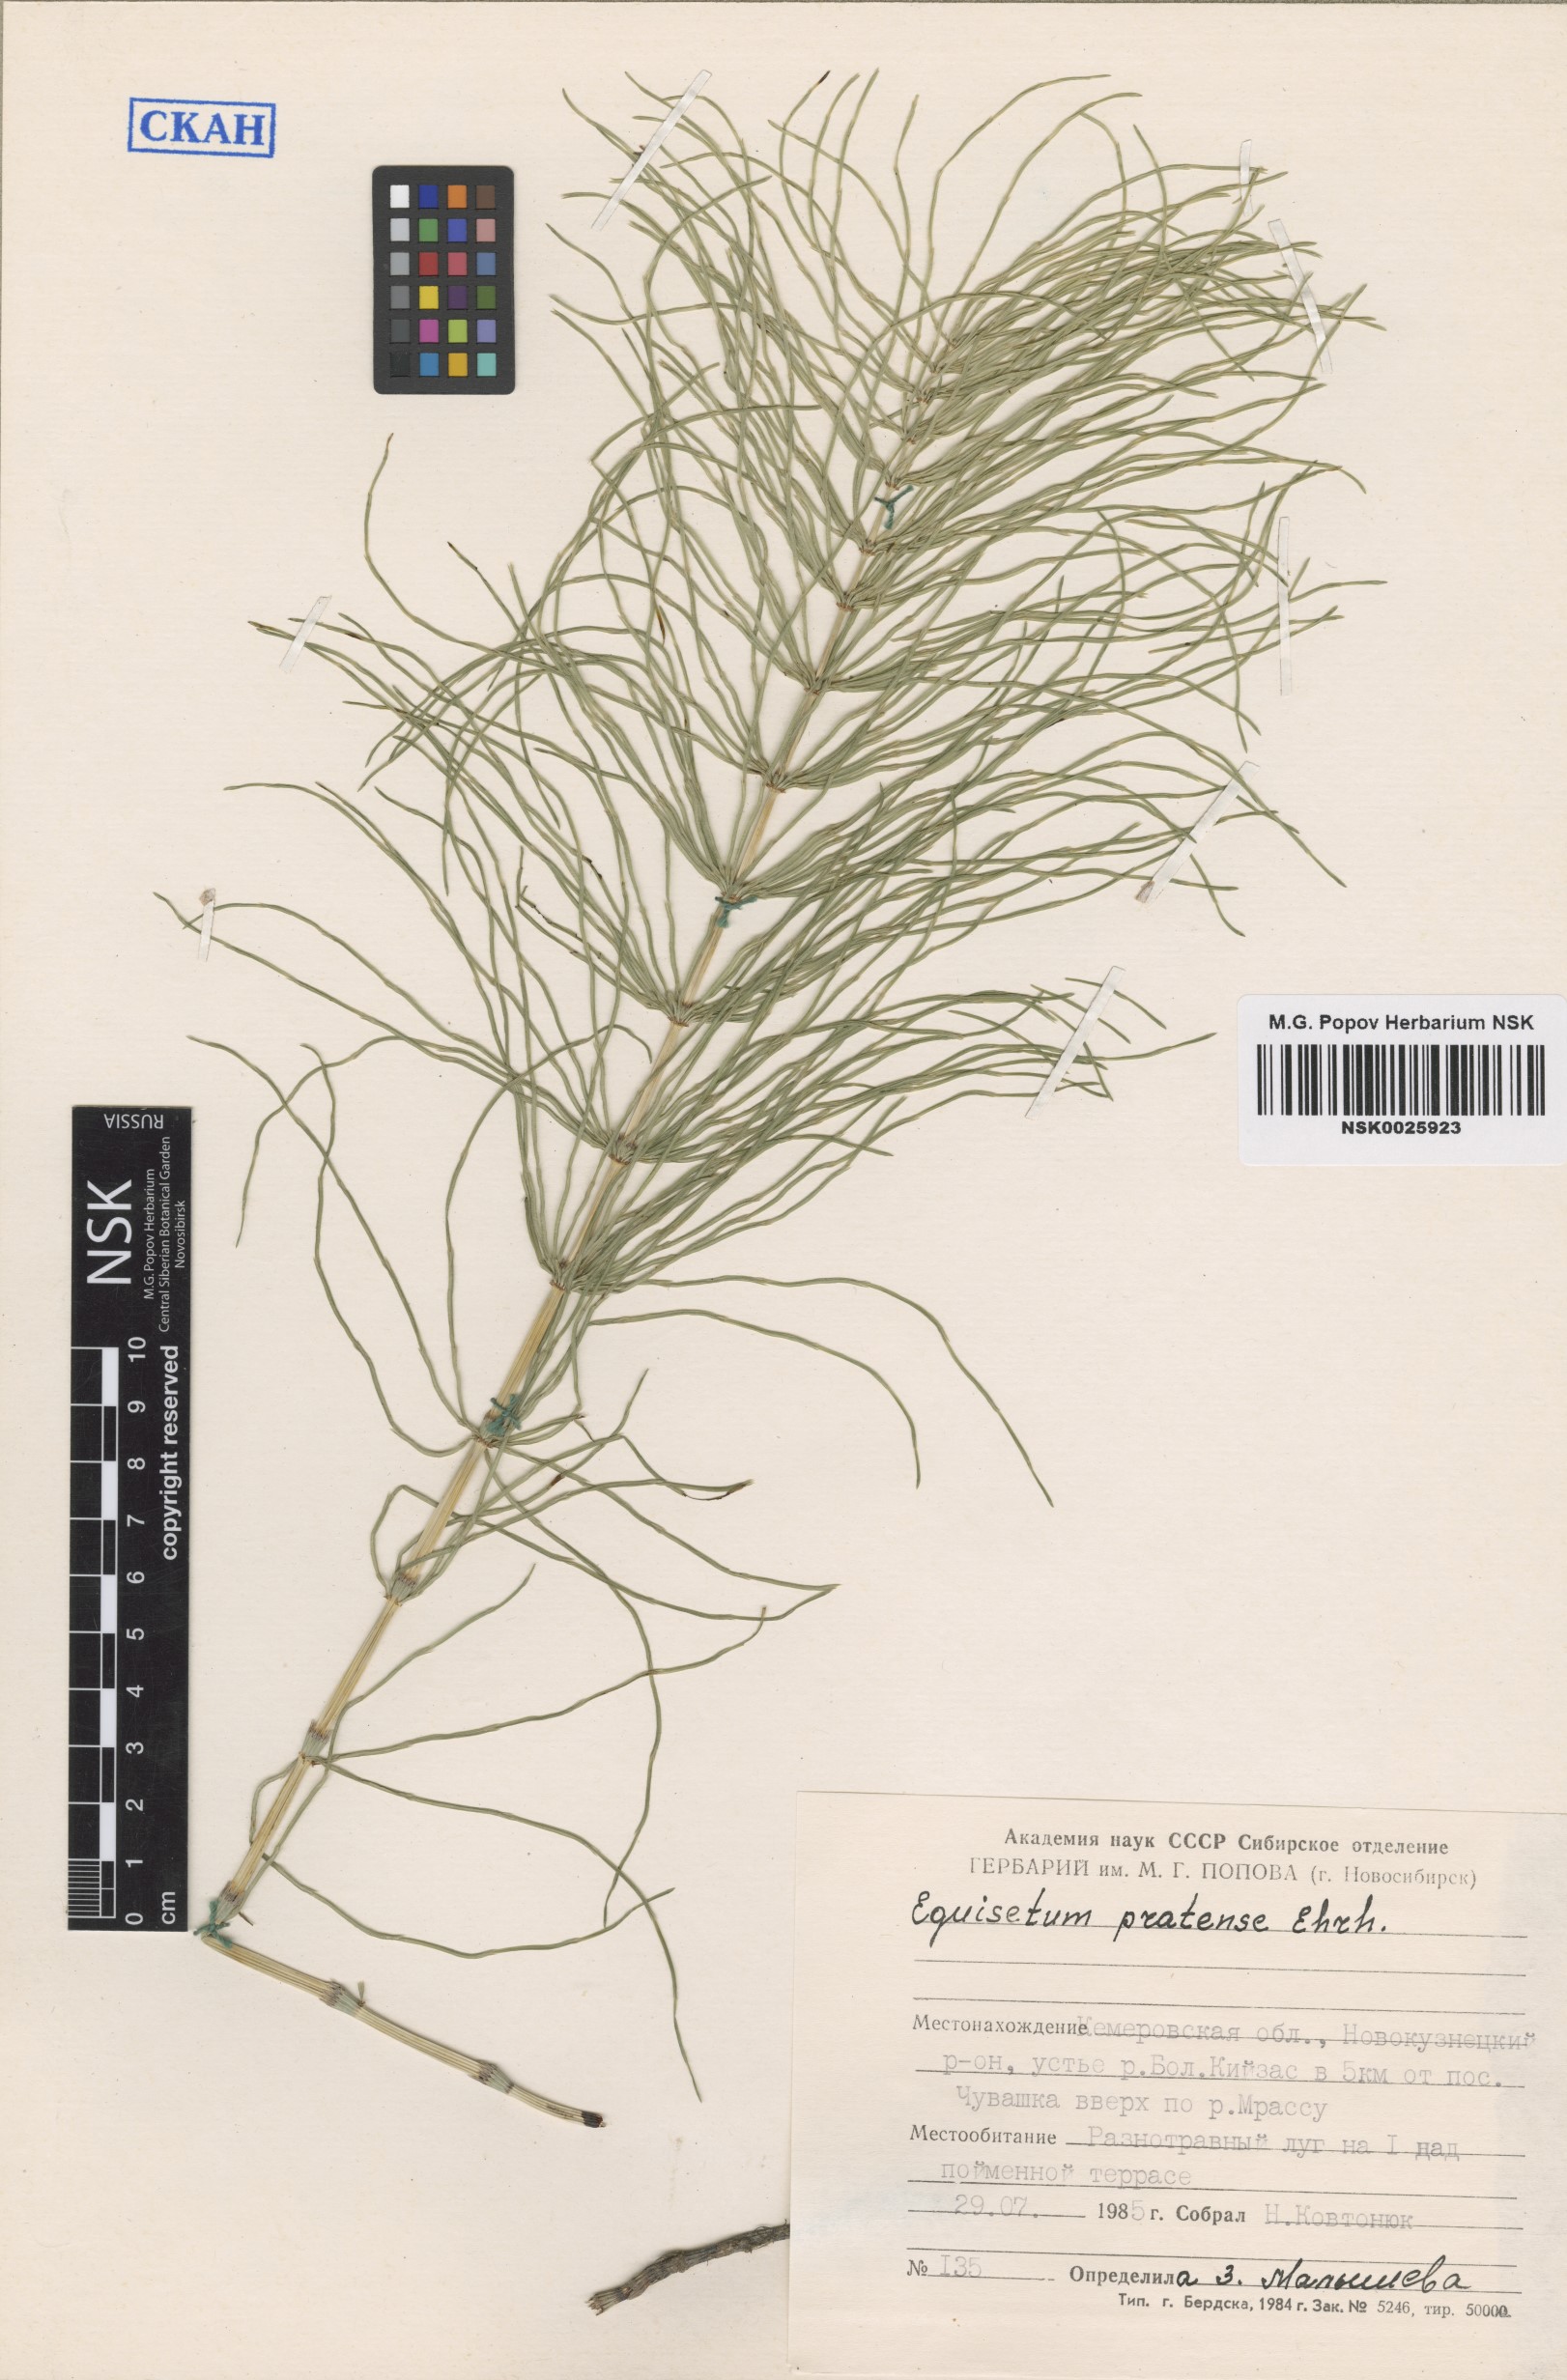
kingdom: Plantae
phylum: Tracheophyta
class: Polypodiopsida
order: Equisetales
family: Equisetaceae
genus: Equisetum
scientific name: Equisetum pratense
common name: Meadow horsetail
